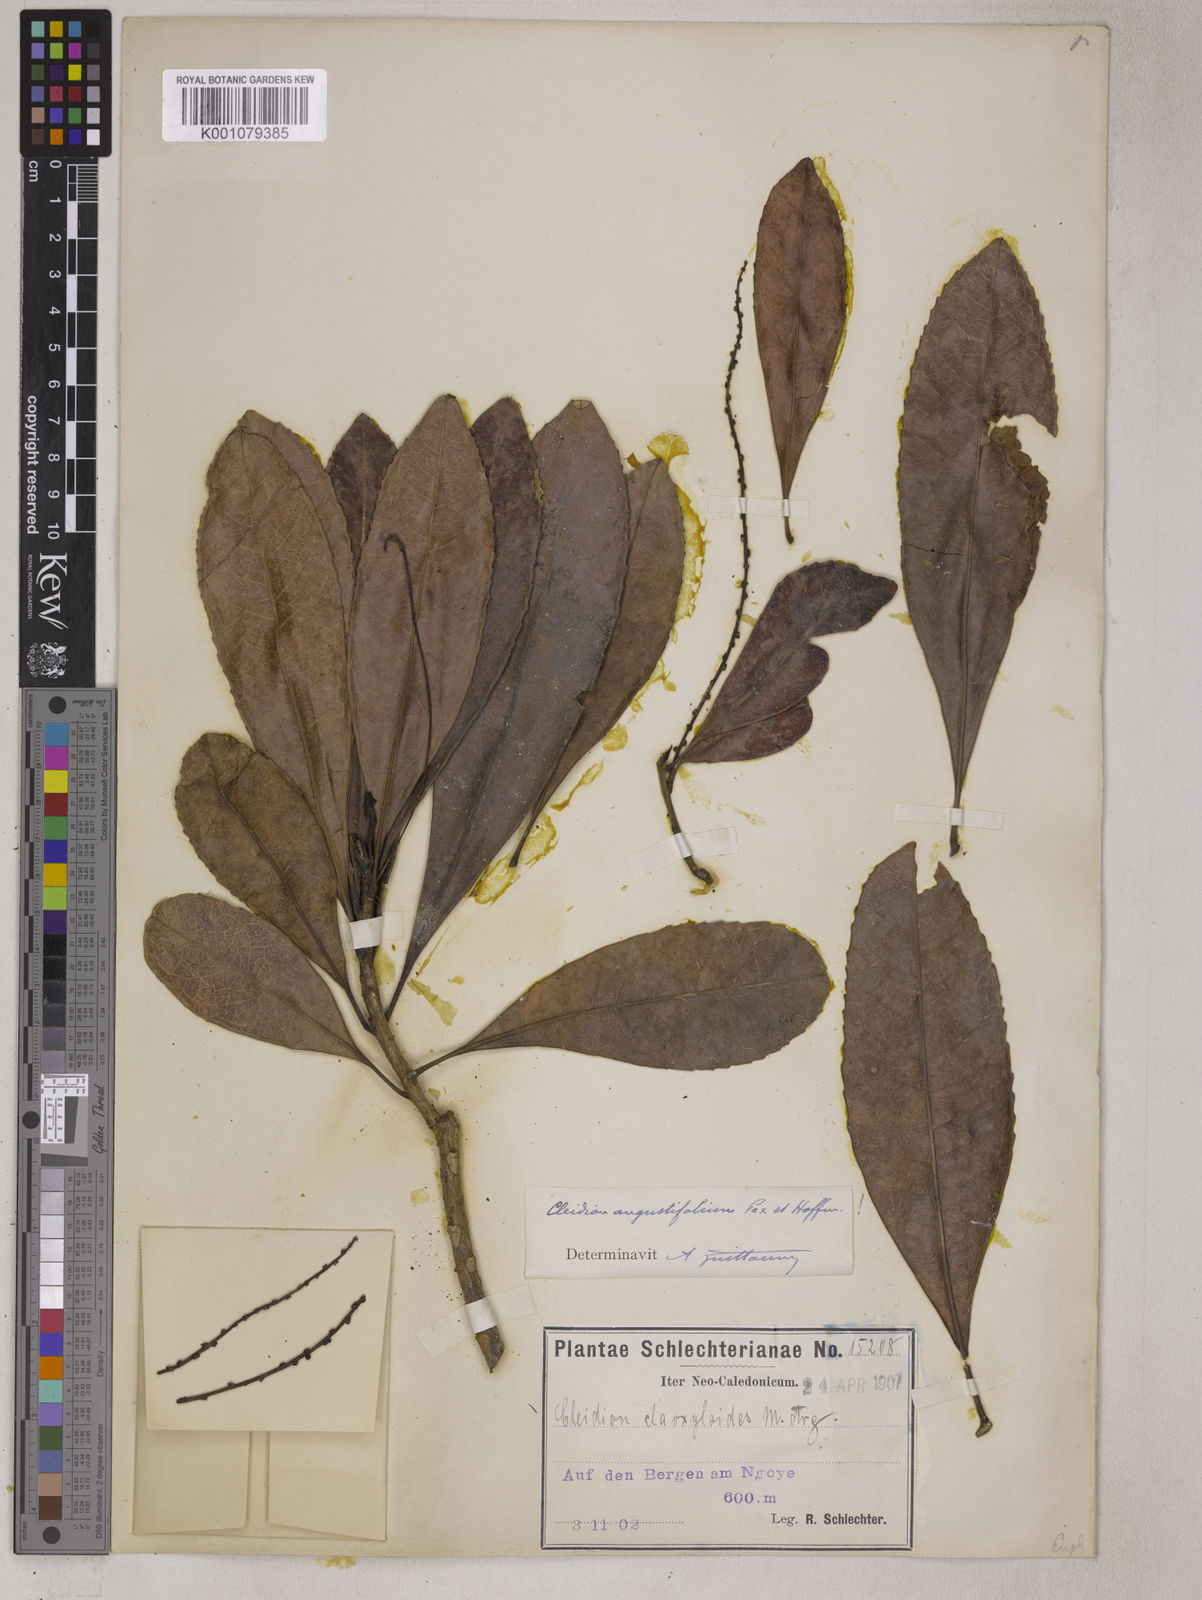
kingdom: Plantae
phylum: Tracheophyta
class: Magnoliopsida
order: Malpighiales
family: Euphorbiaceae
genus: Cleidion
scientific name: Cleidion vieillardii
